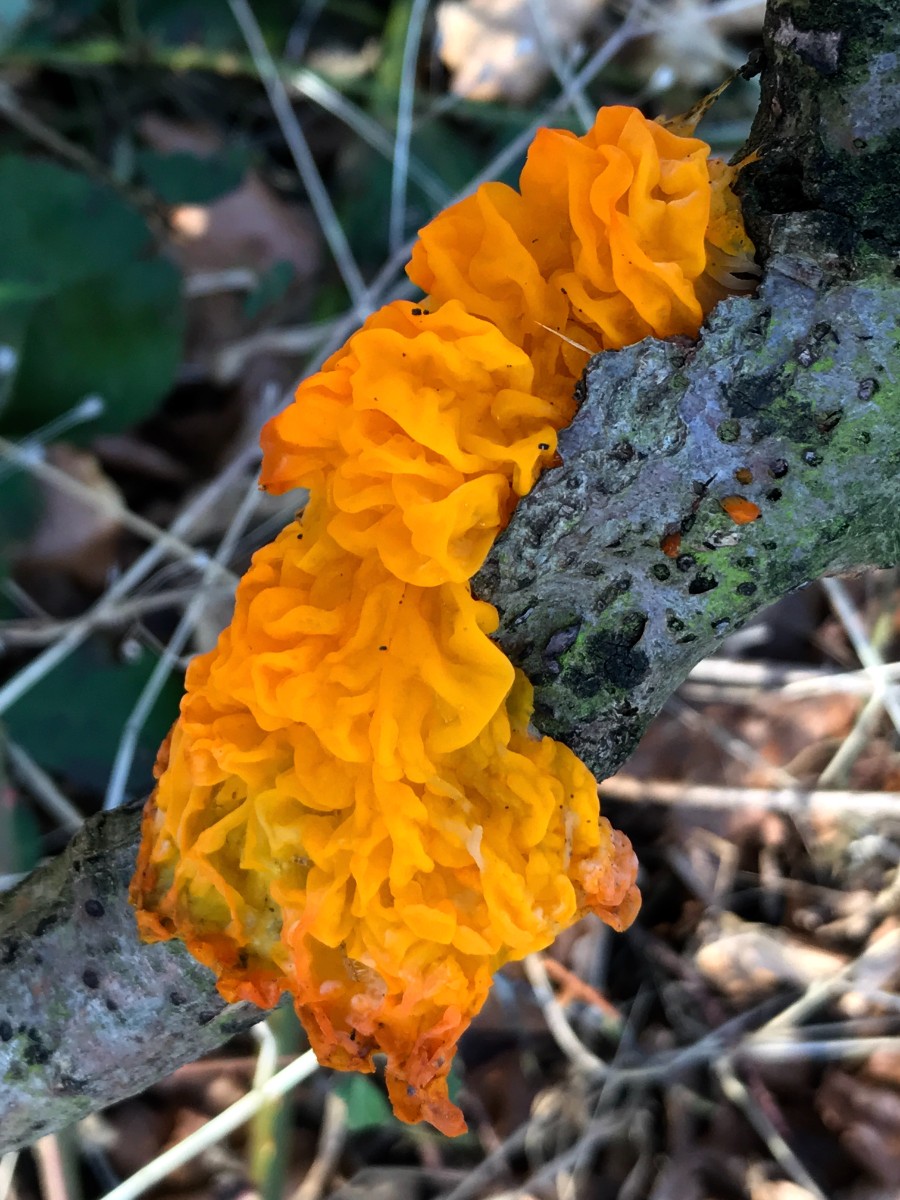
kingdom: Fungi
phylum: Basidiomycota
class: Tremellomycetes
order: Tremellales
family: Tremellaceae
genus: Tremella
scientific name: Tremella mesenterica
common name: gul bævresvamp
